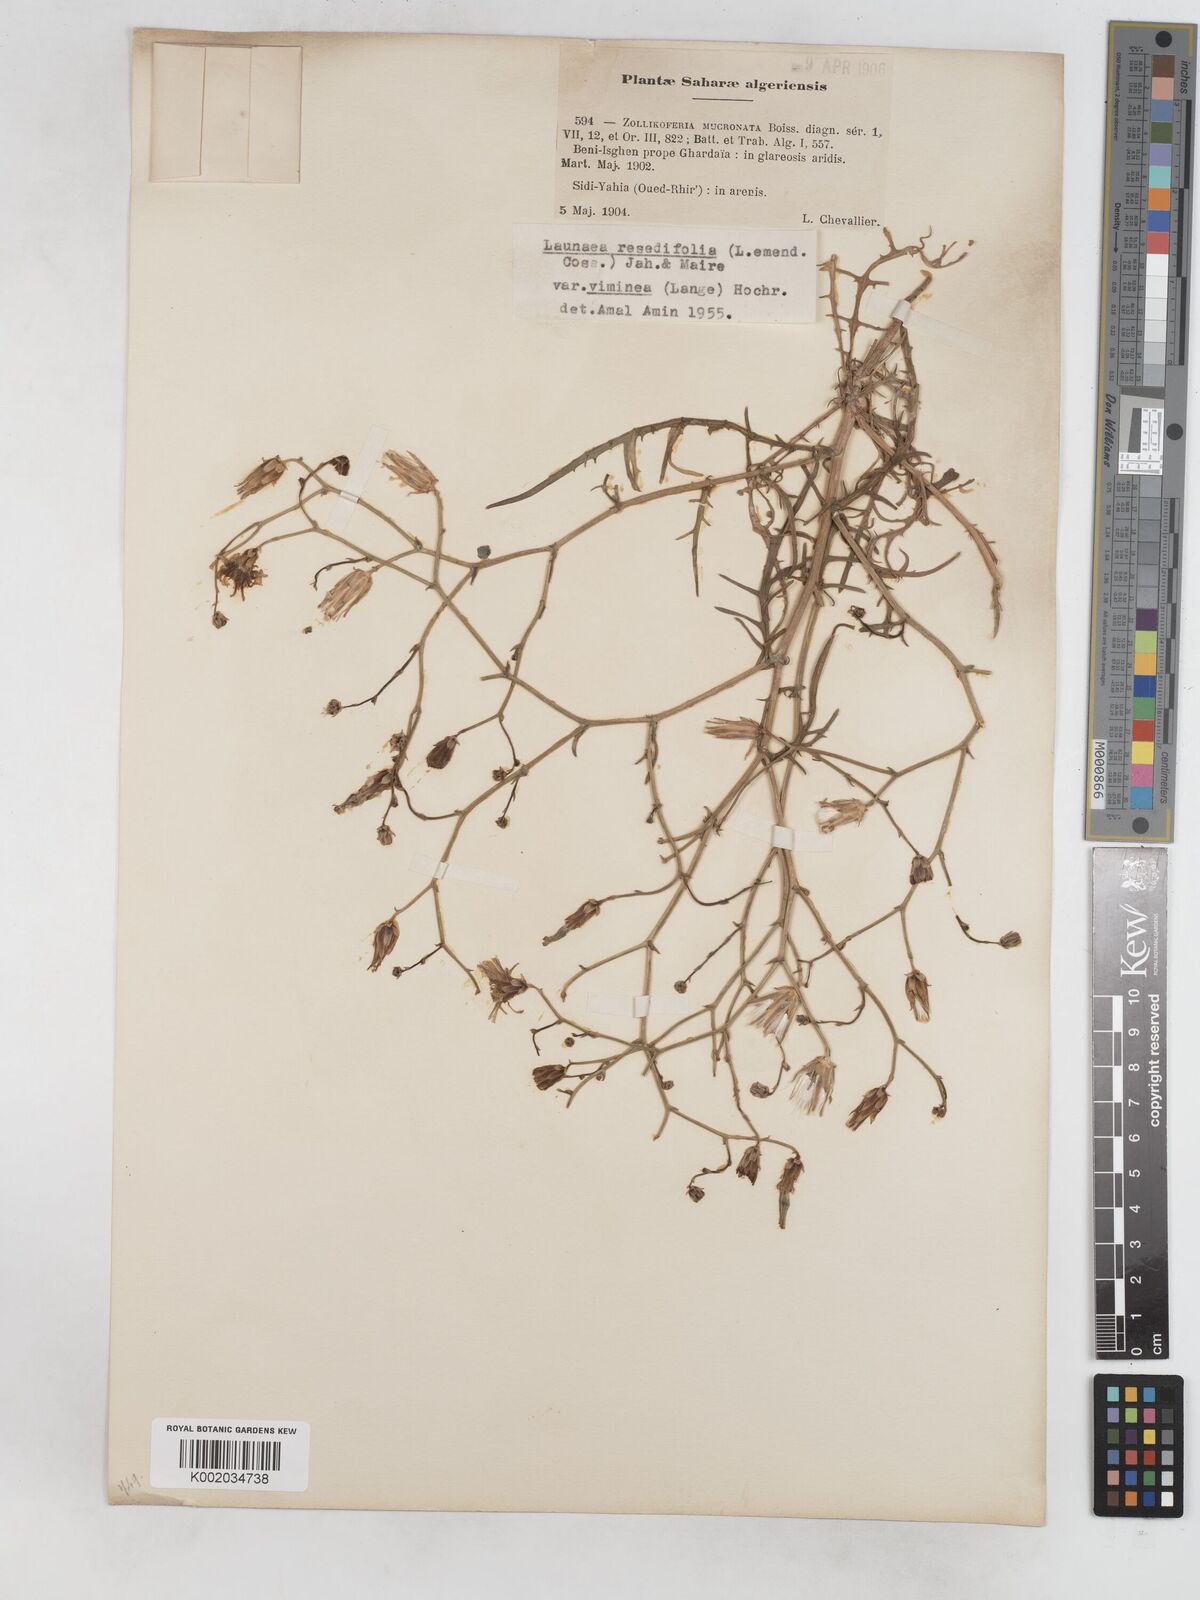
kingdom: Plantae
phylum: Tracheophyta
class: Magnoliopsida
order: Asterales
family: Asteraceae
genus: Launaea
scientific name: Launaea
